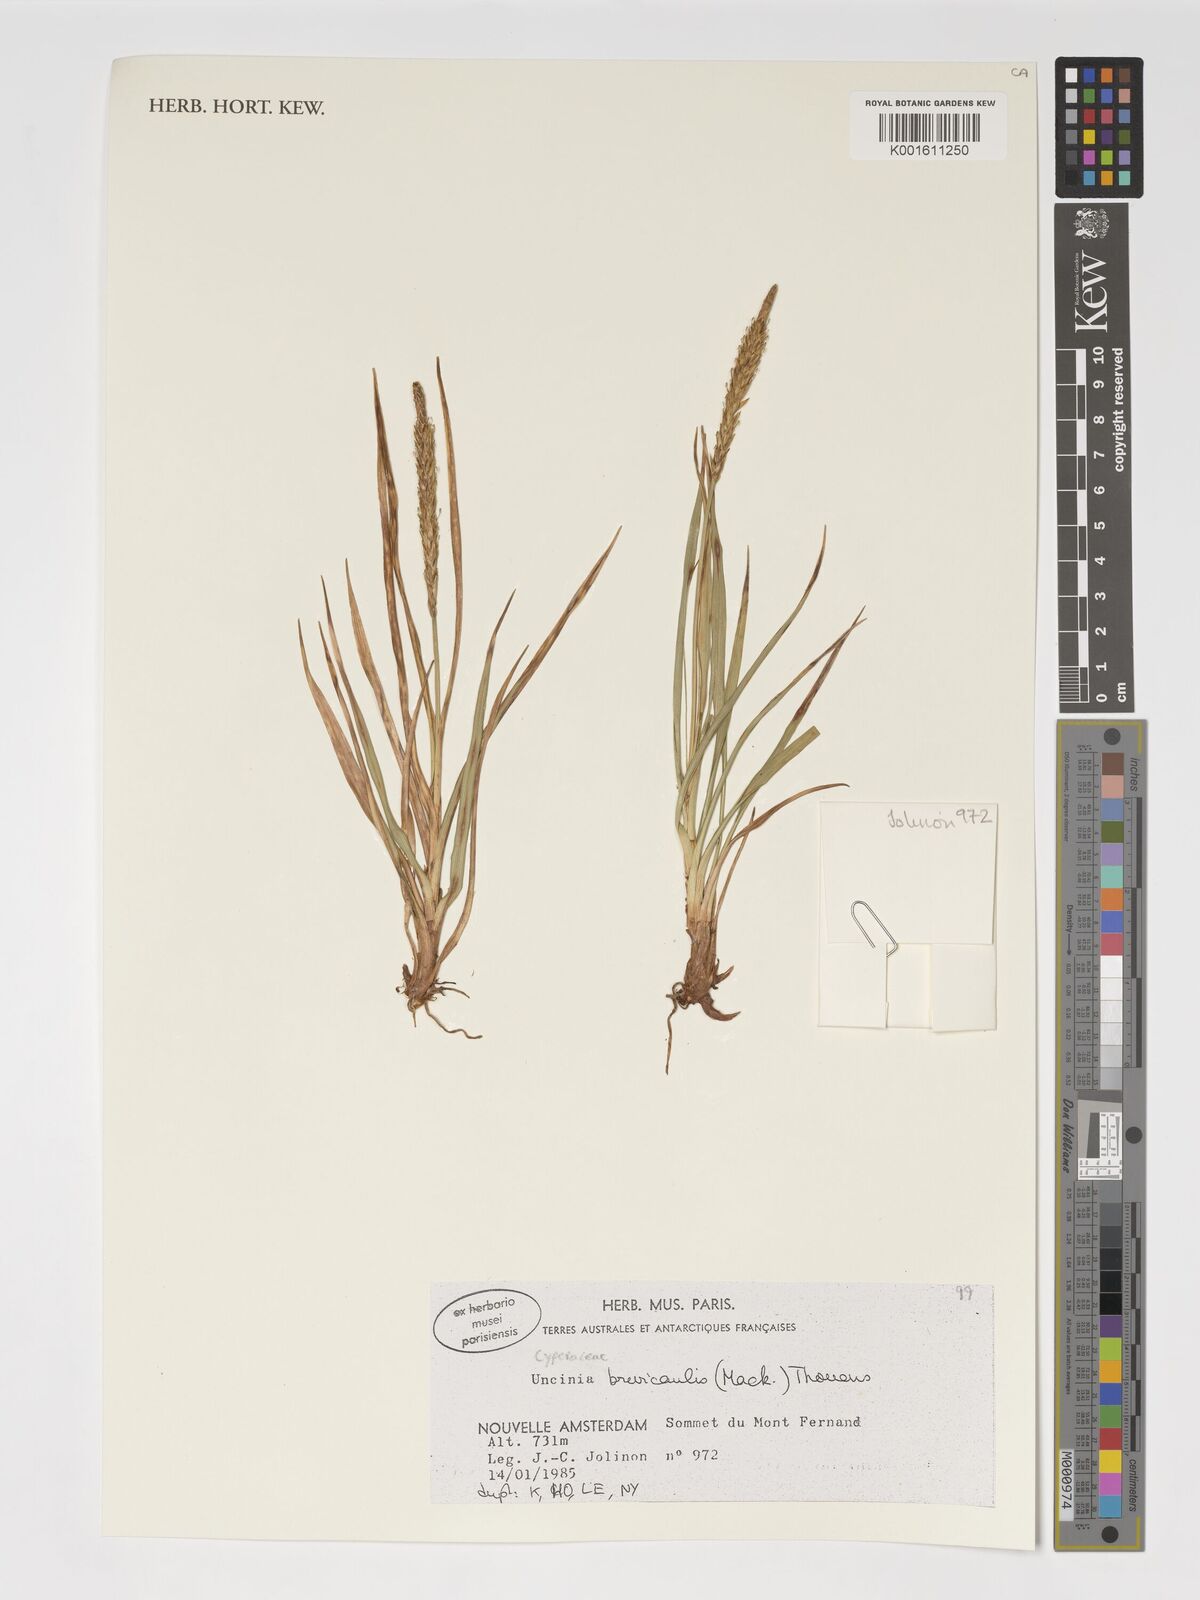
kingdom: Fungi
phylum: Ascomycota
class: Leotiomycetes
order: Helotiales
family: Hamatocanthoscyphaceae
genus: Uncinia
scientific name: Uncinia
